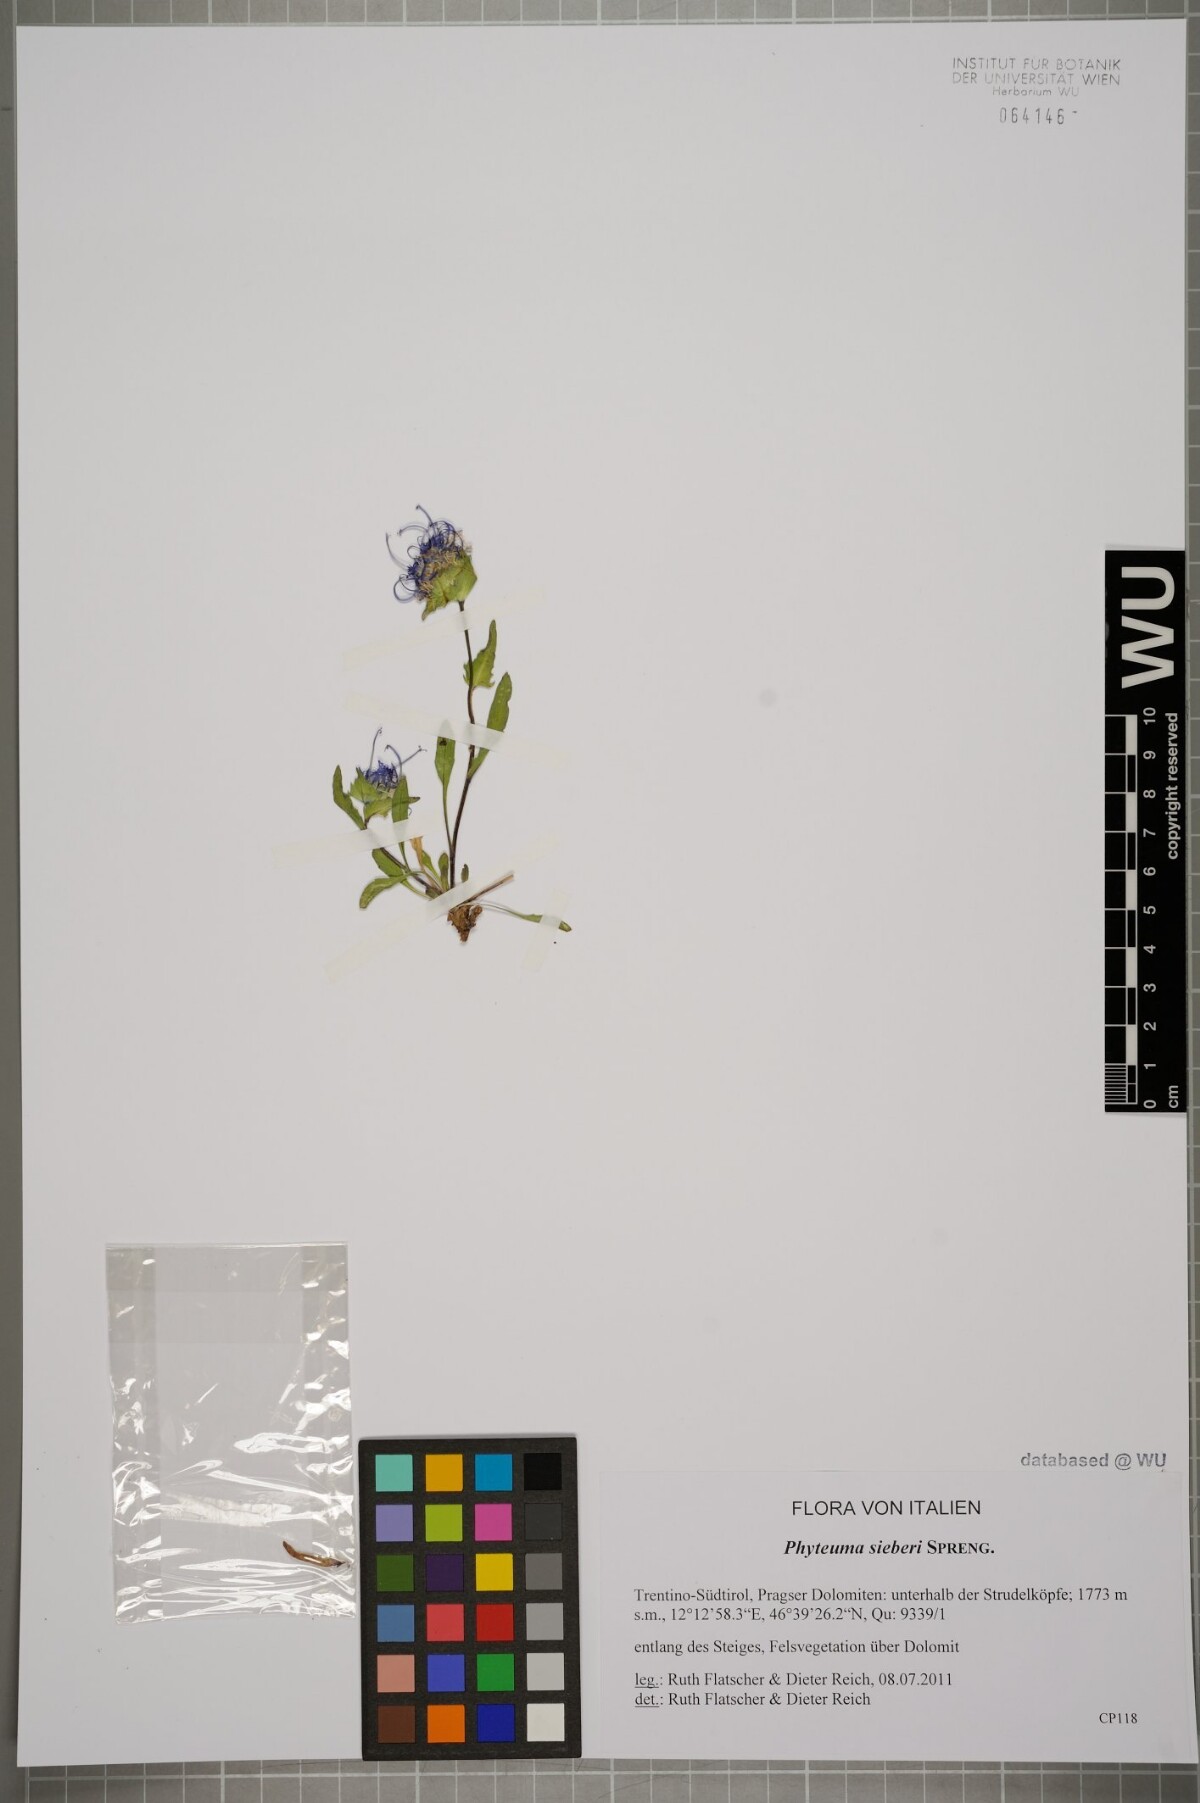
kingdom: Plantae
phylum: Tracheophyta
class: Magnoliopsida
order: Asterales
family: Campanulaceae
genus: Phyteuma
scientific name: Phyteuma sieberi
